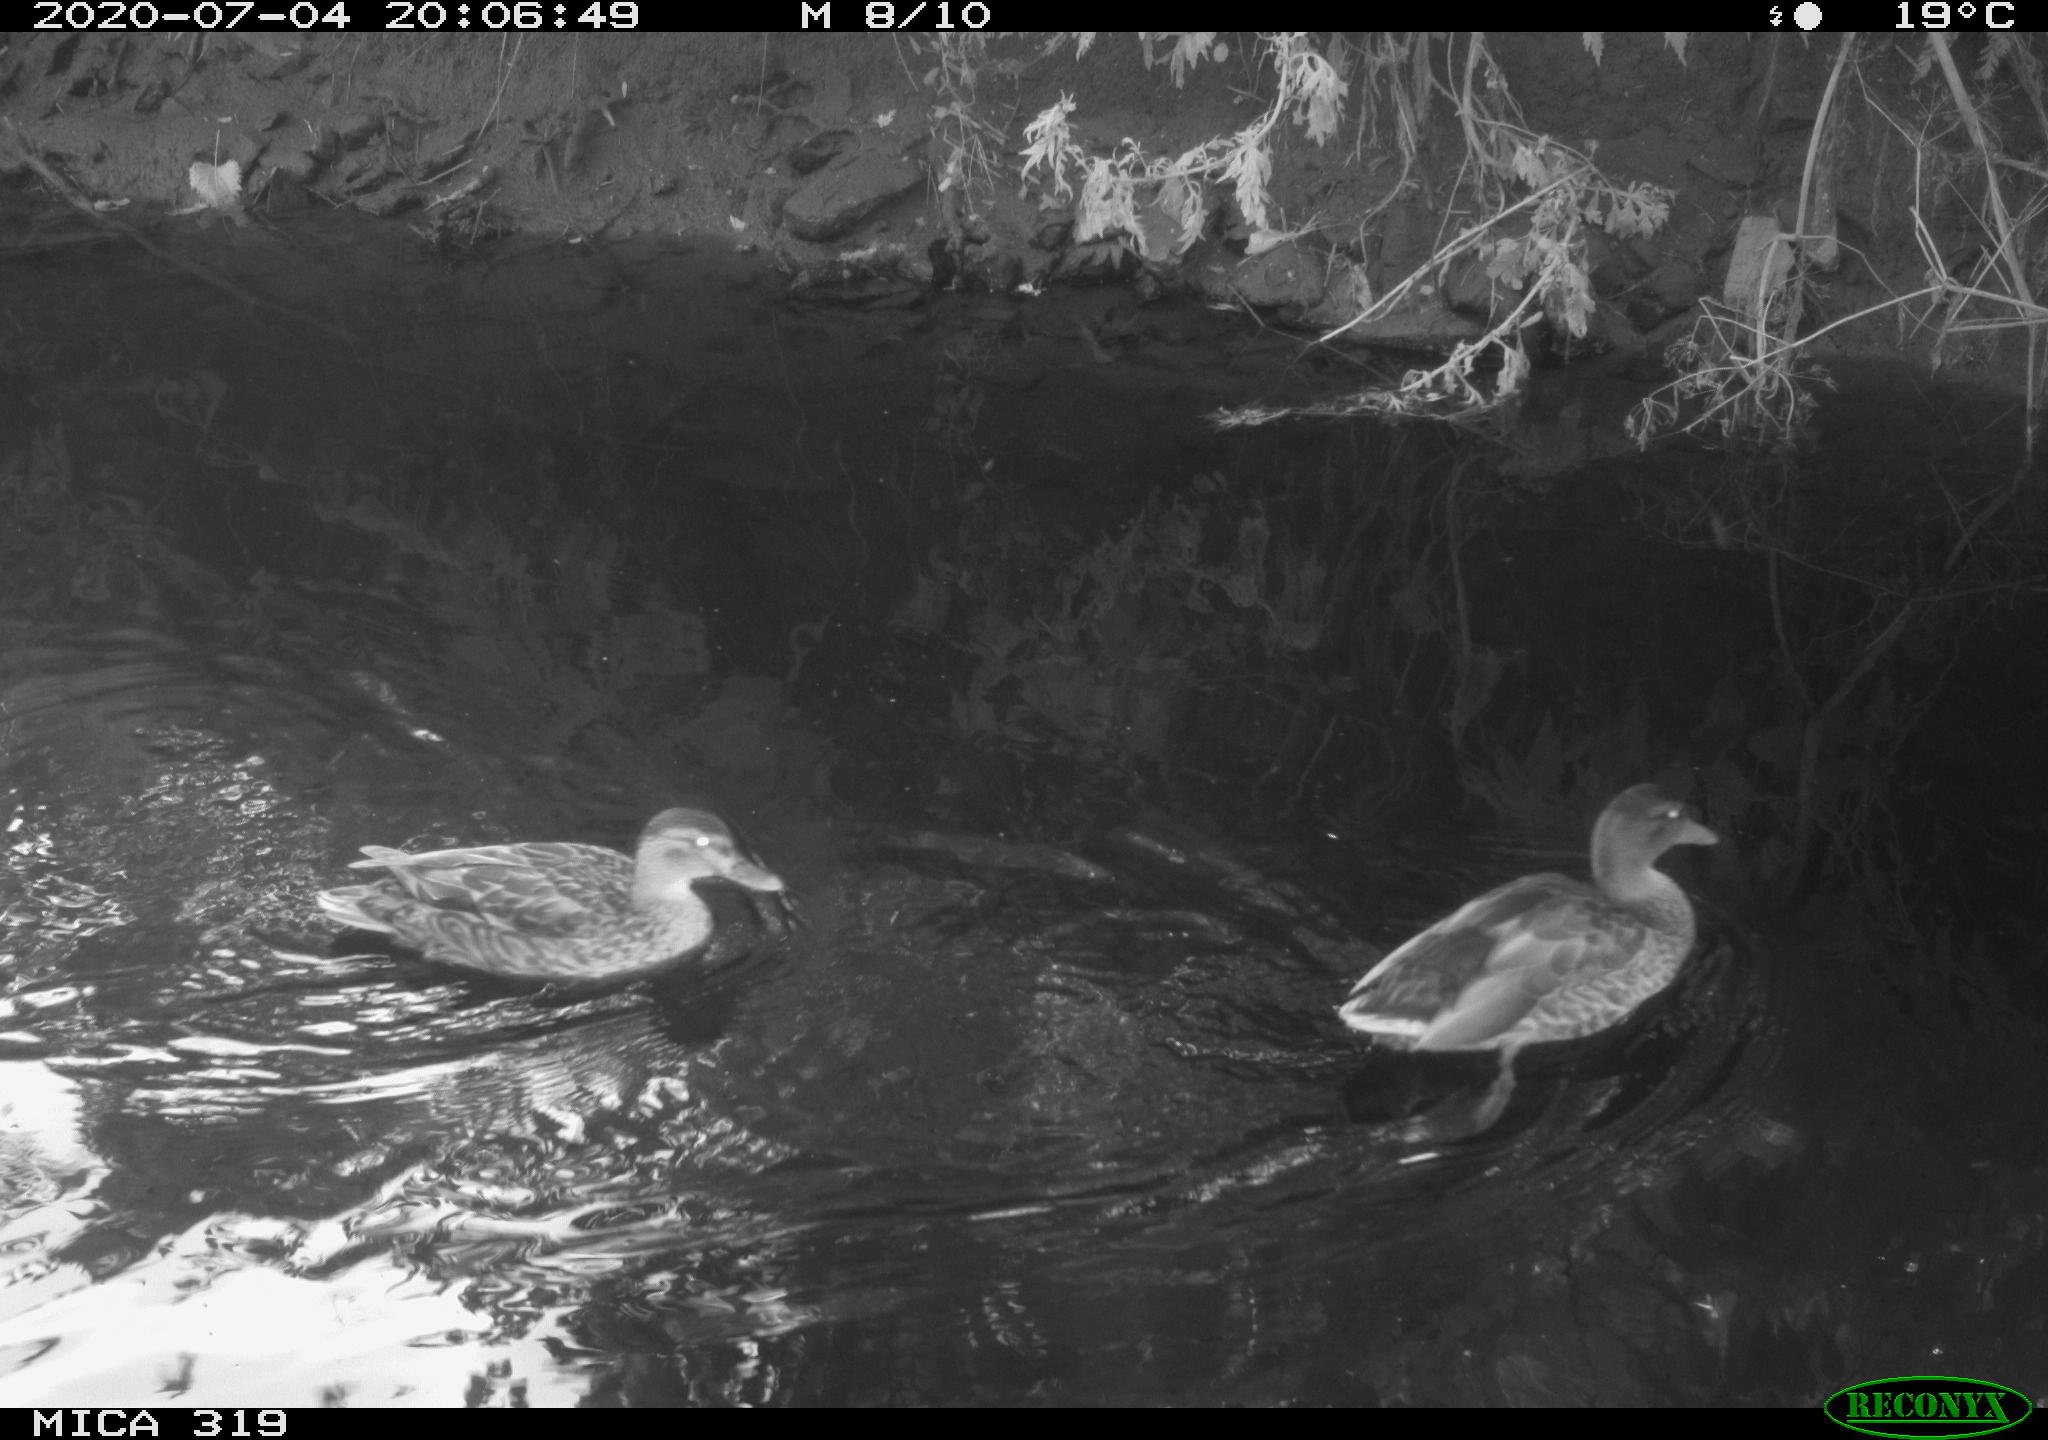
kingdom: Animalia
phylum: Chordata
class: Aves
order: Anseriformes
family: Anatidae
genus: Anas
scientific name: Anas platyrhynchos
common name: Mallard
